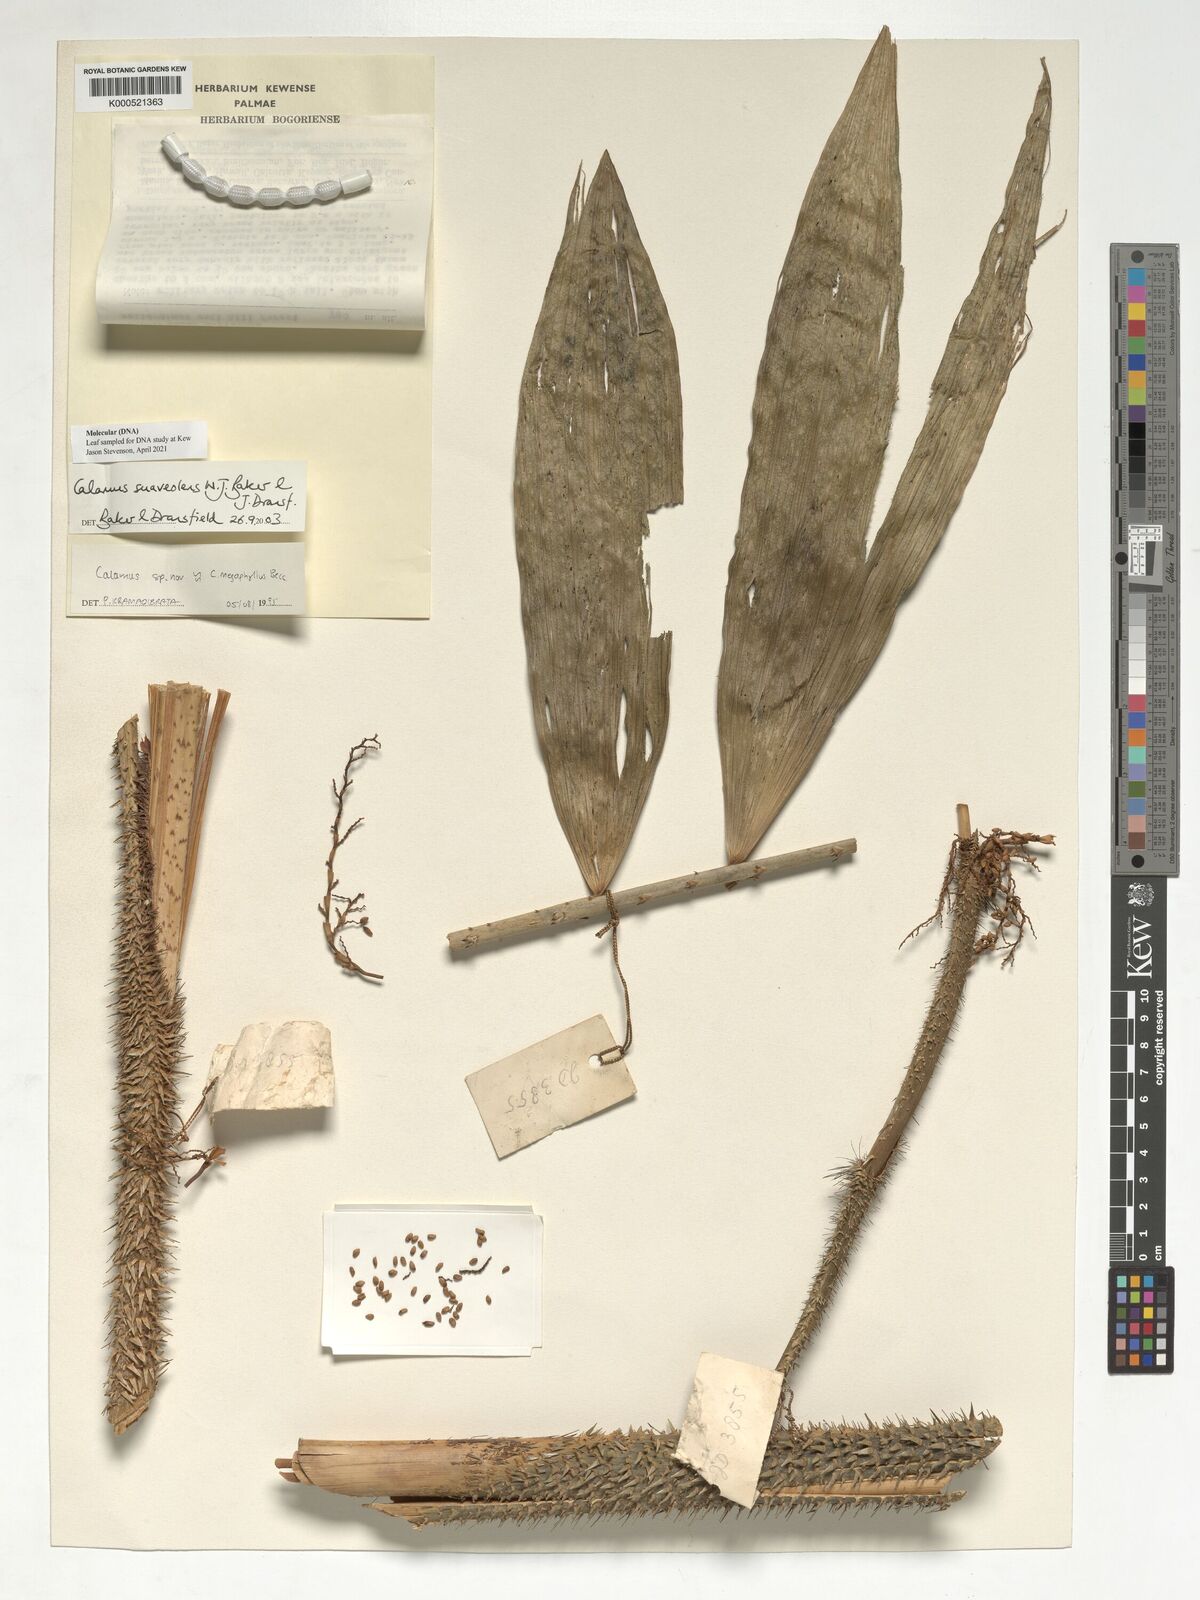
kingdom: Plantae
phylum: Tracheophyta
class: Liliopsida
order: Arecales
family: Arecaceae
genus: Calamus
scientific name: Calamus suaveolens
